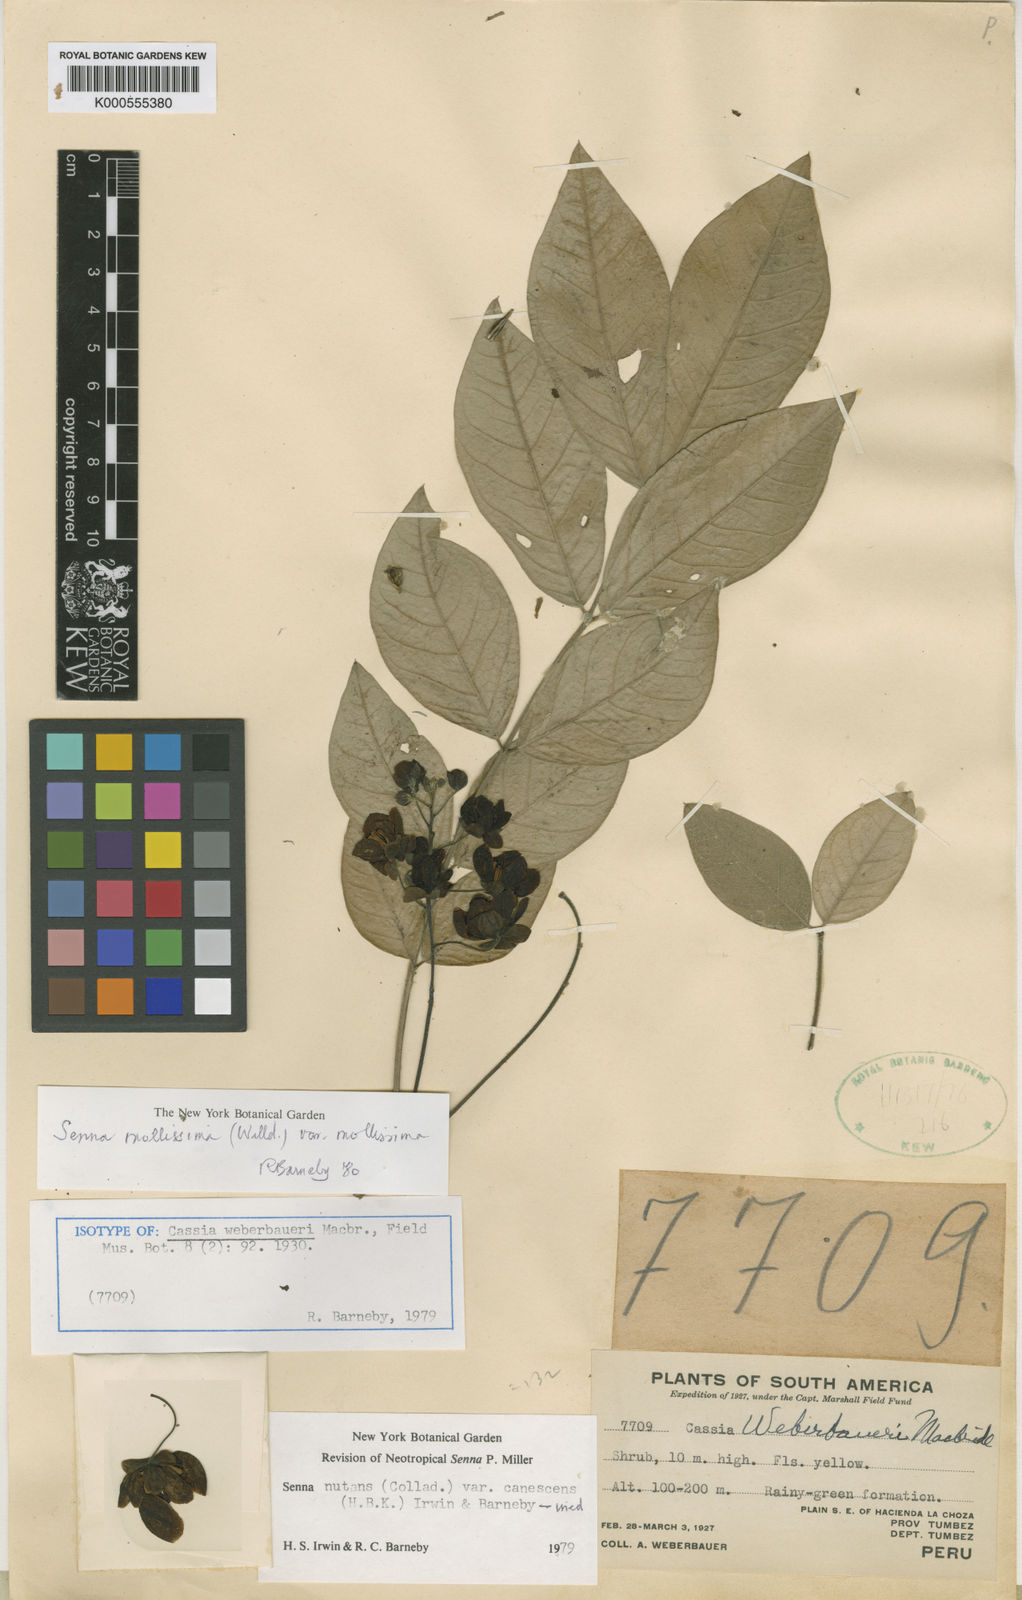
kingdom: Plantae
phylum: Tracheophyta
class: Magnoliopsida
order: Fabales
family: Fabaceae
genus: Senna
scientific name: Senna mollissima
